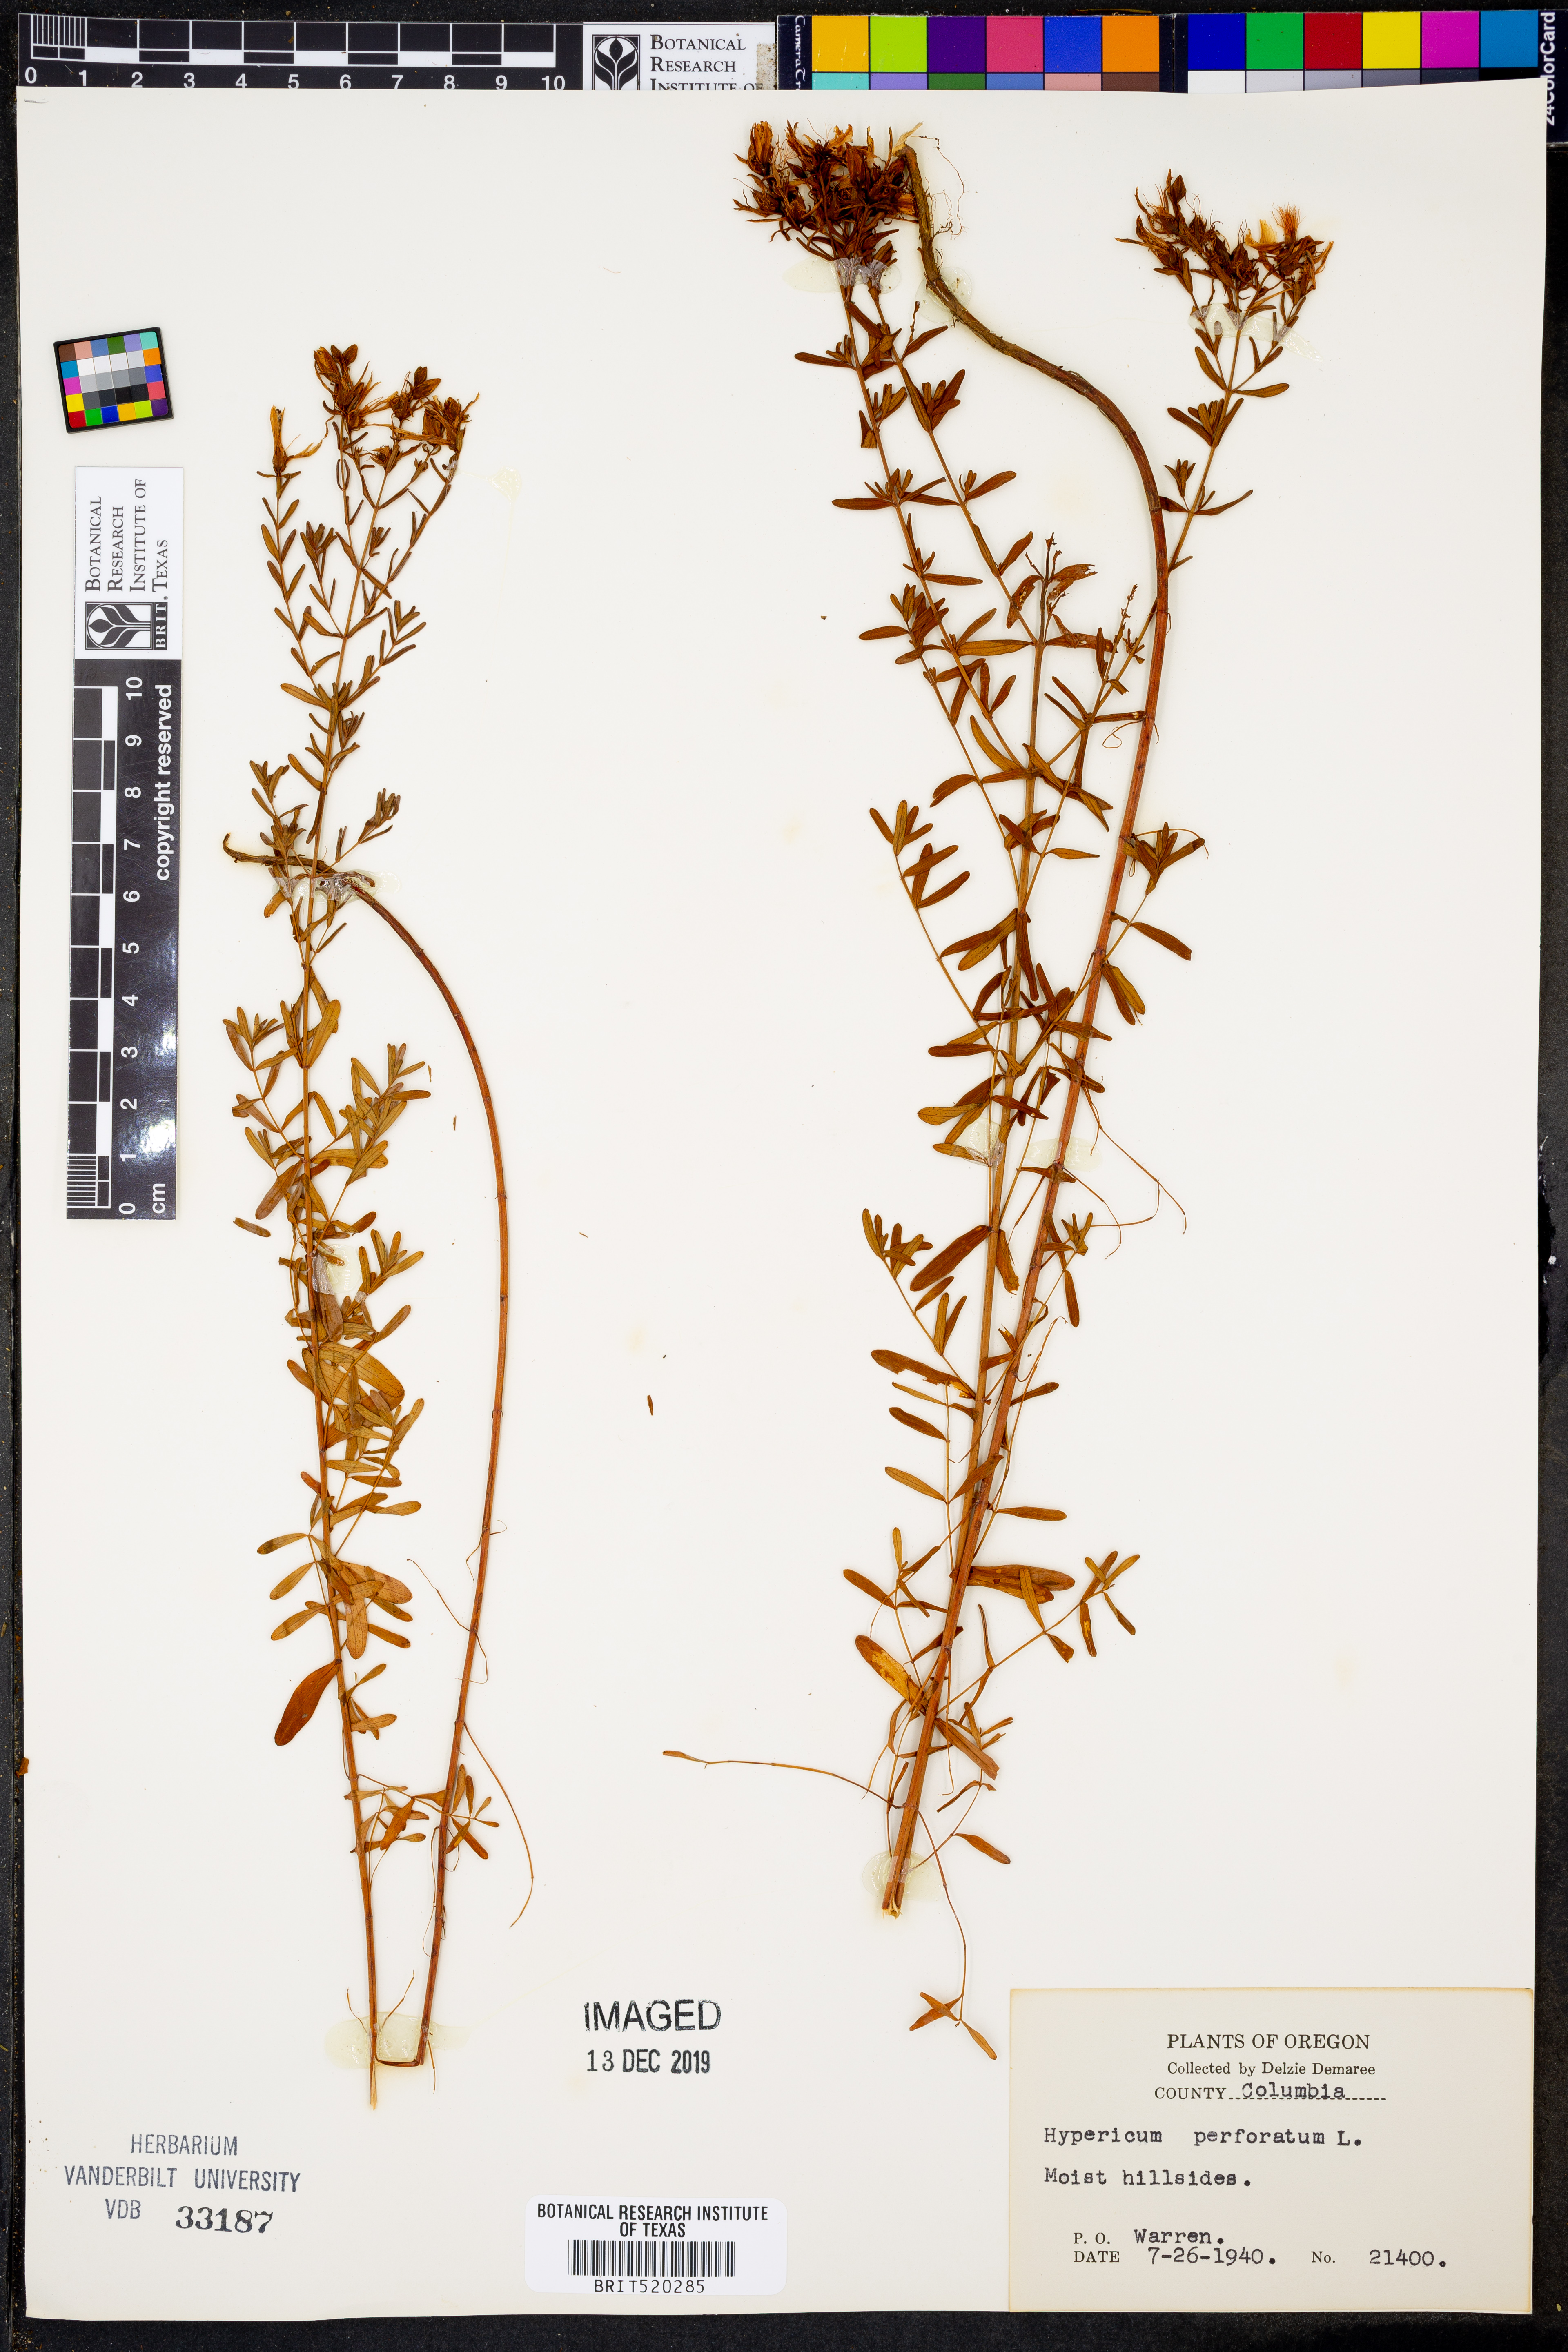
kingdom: Plantae
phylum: Tracheophyta
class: Magnoliopsida
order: Malpighiales
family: Hypericaceae
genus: Hypericum
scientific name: Hypericum perforatum
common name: Common st. johnswort
